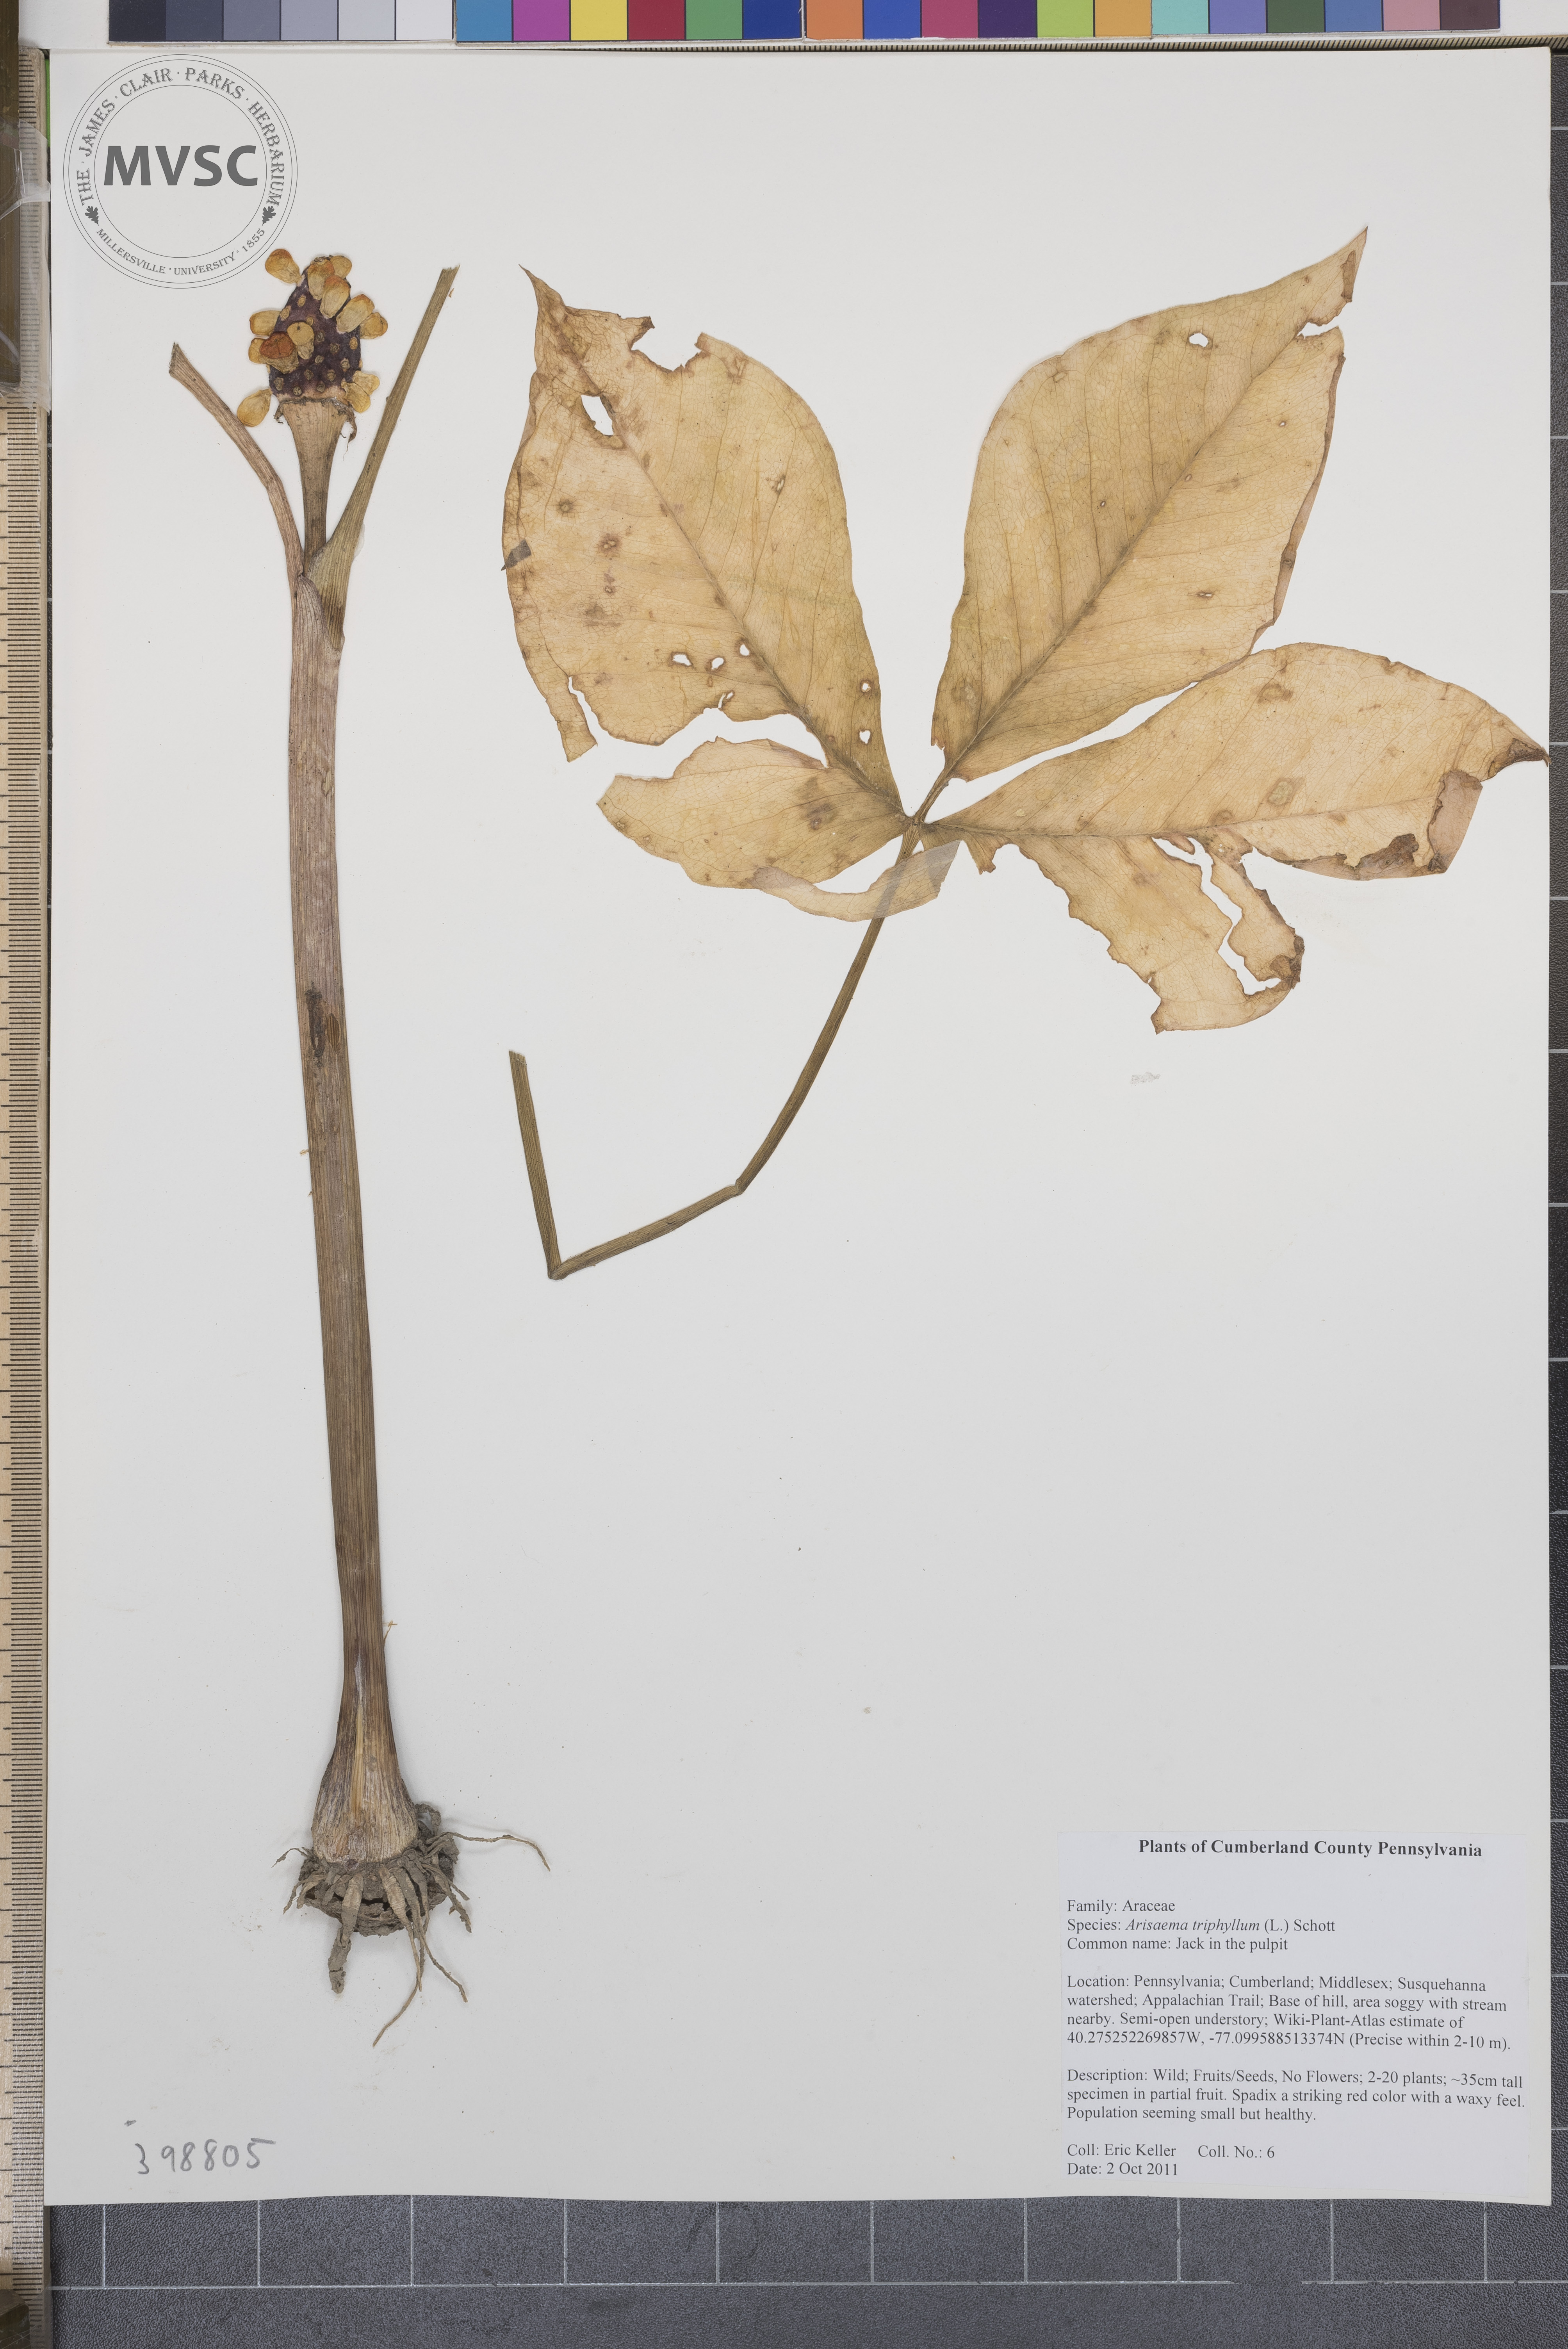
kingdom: Plantae
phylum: Tracheophyta
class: Liliopsida
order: Alismatales
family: Araceae
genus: Arisaema
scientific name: Arisaema triphyllum
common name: Green-dragon
